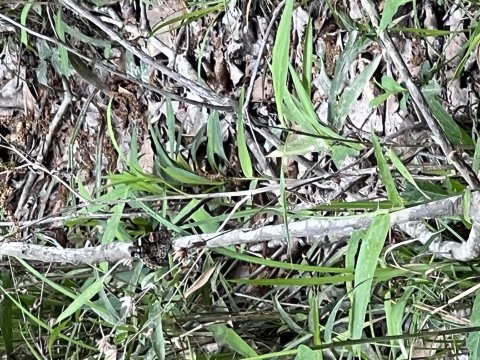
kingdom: Animalia
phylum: Arthropoda
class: Insecta
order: Lepidoptera
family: Nymphalidae
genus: Vanessa
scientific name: Vanessa atalanta
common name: Red Admiral
